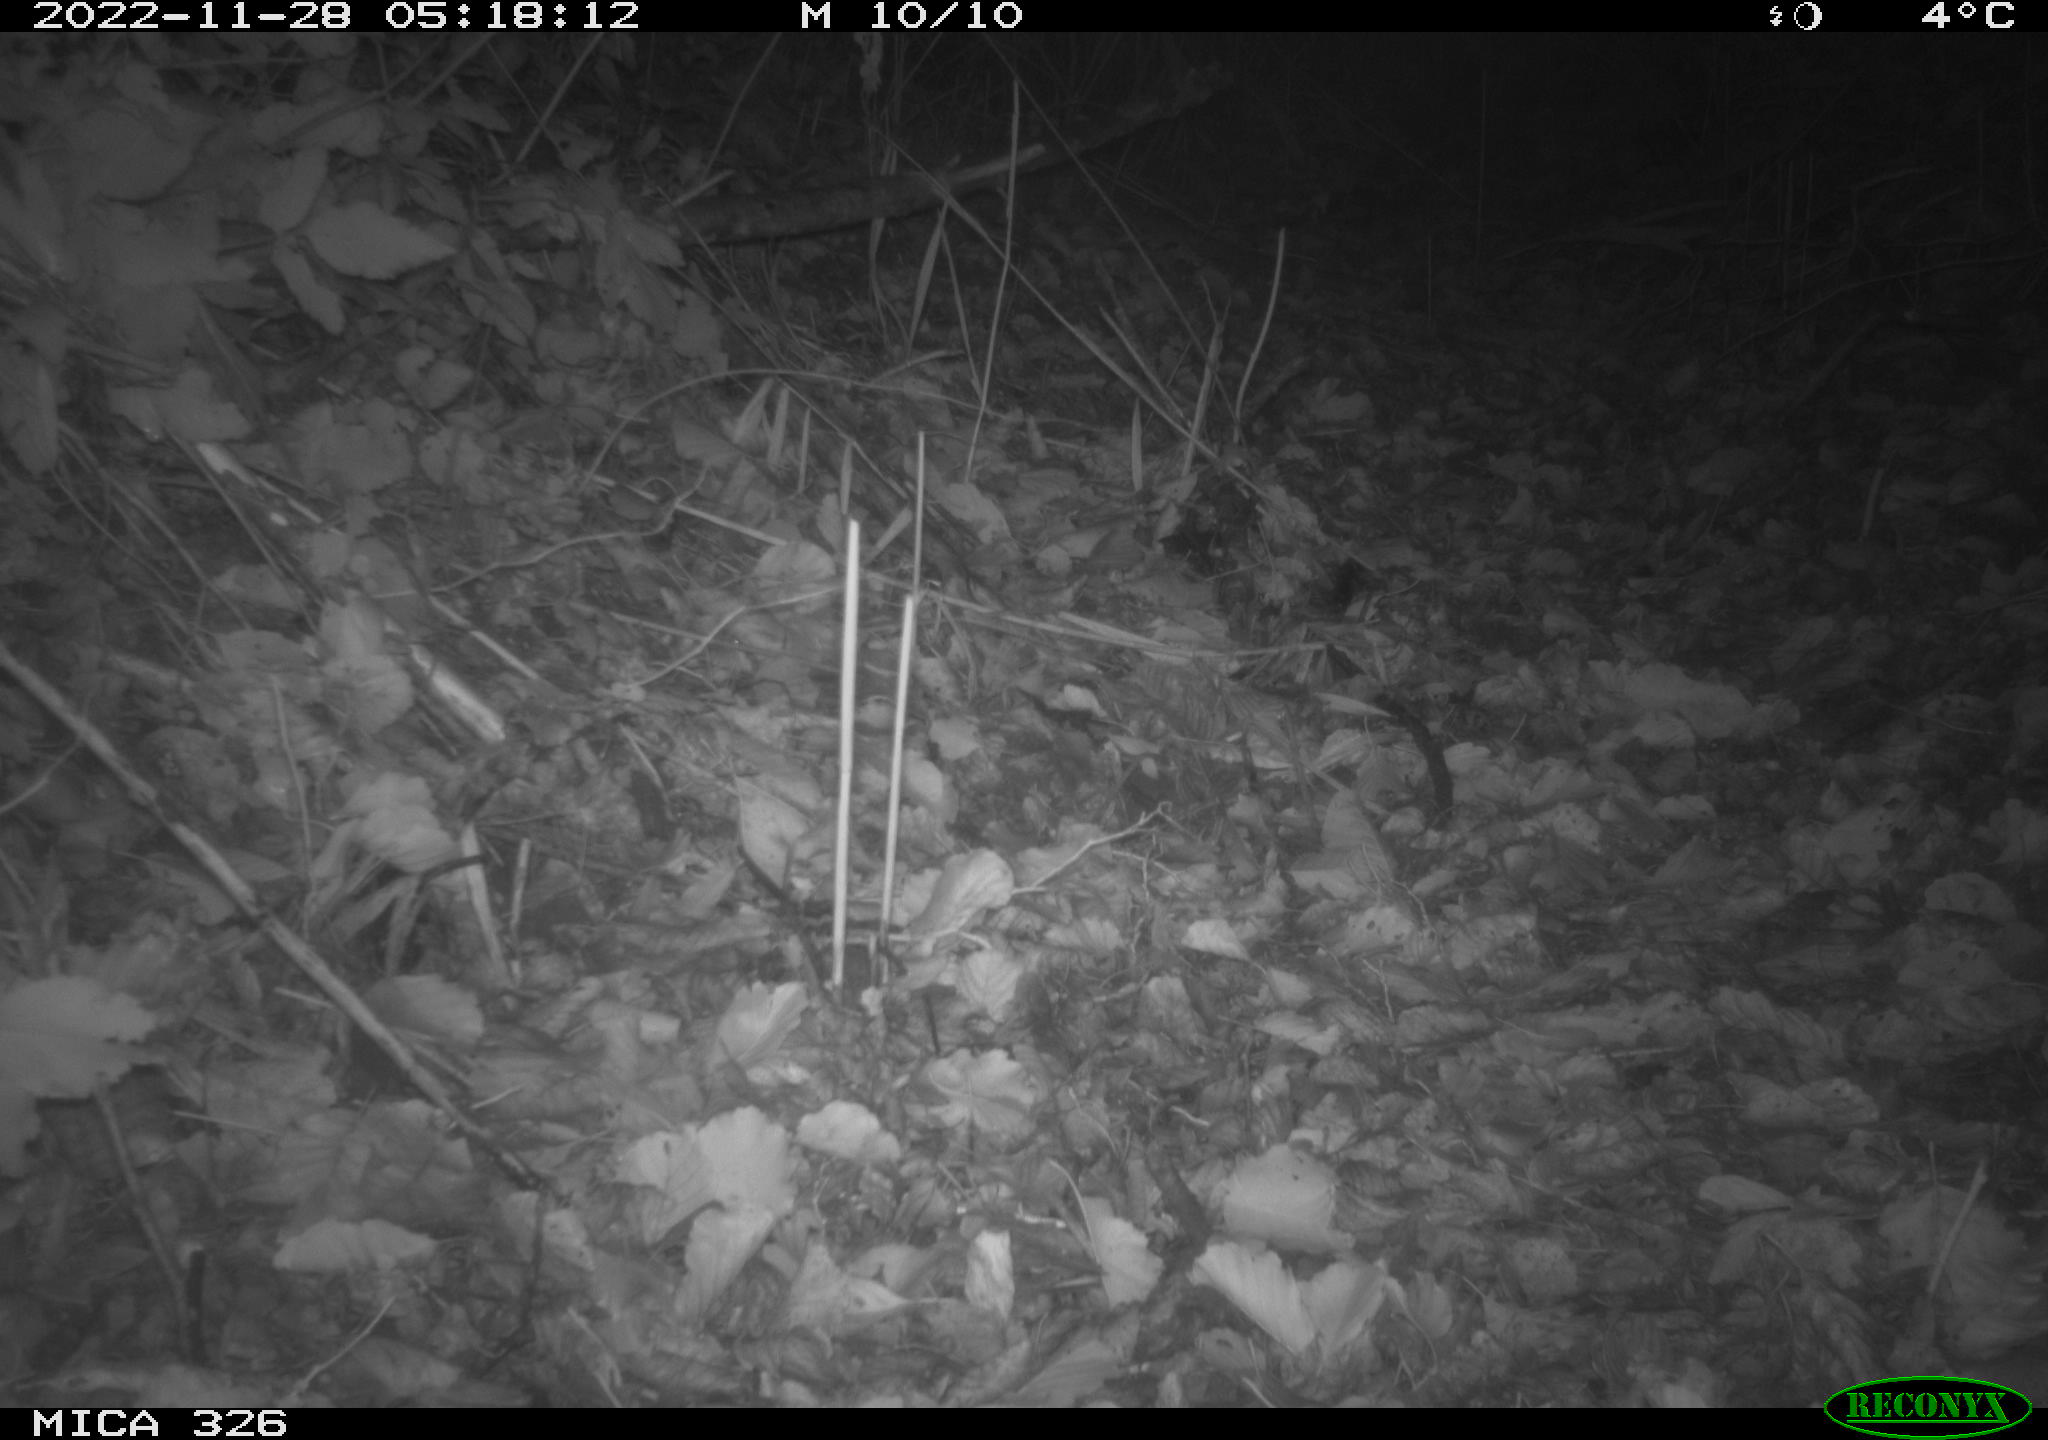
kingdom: Animalia
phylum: Chordata
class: Mammalia
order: Rodentia
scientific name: Rodentia
